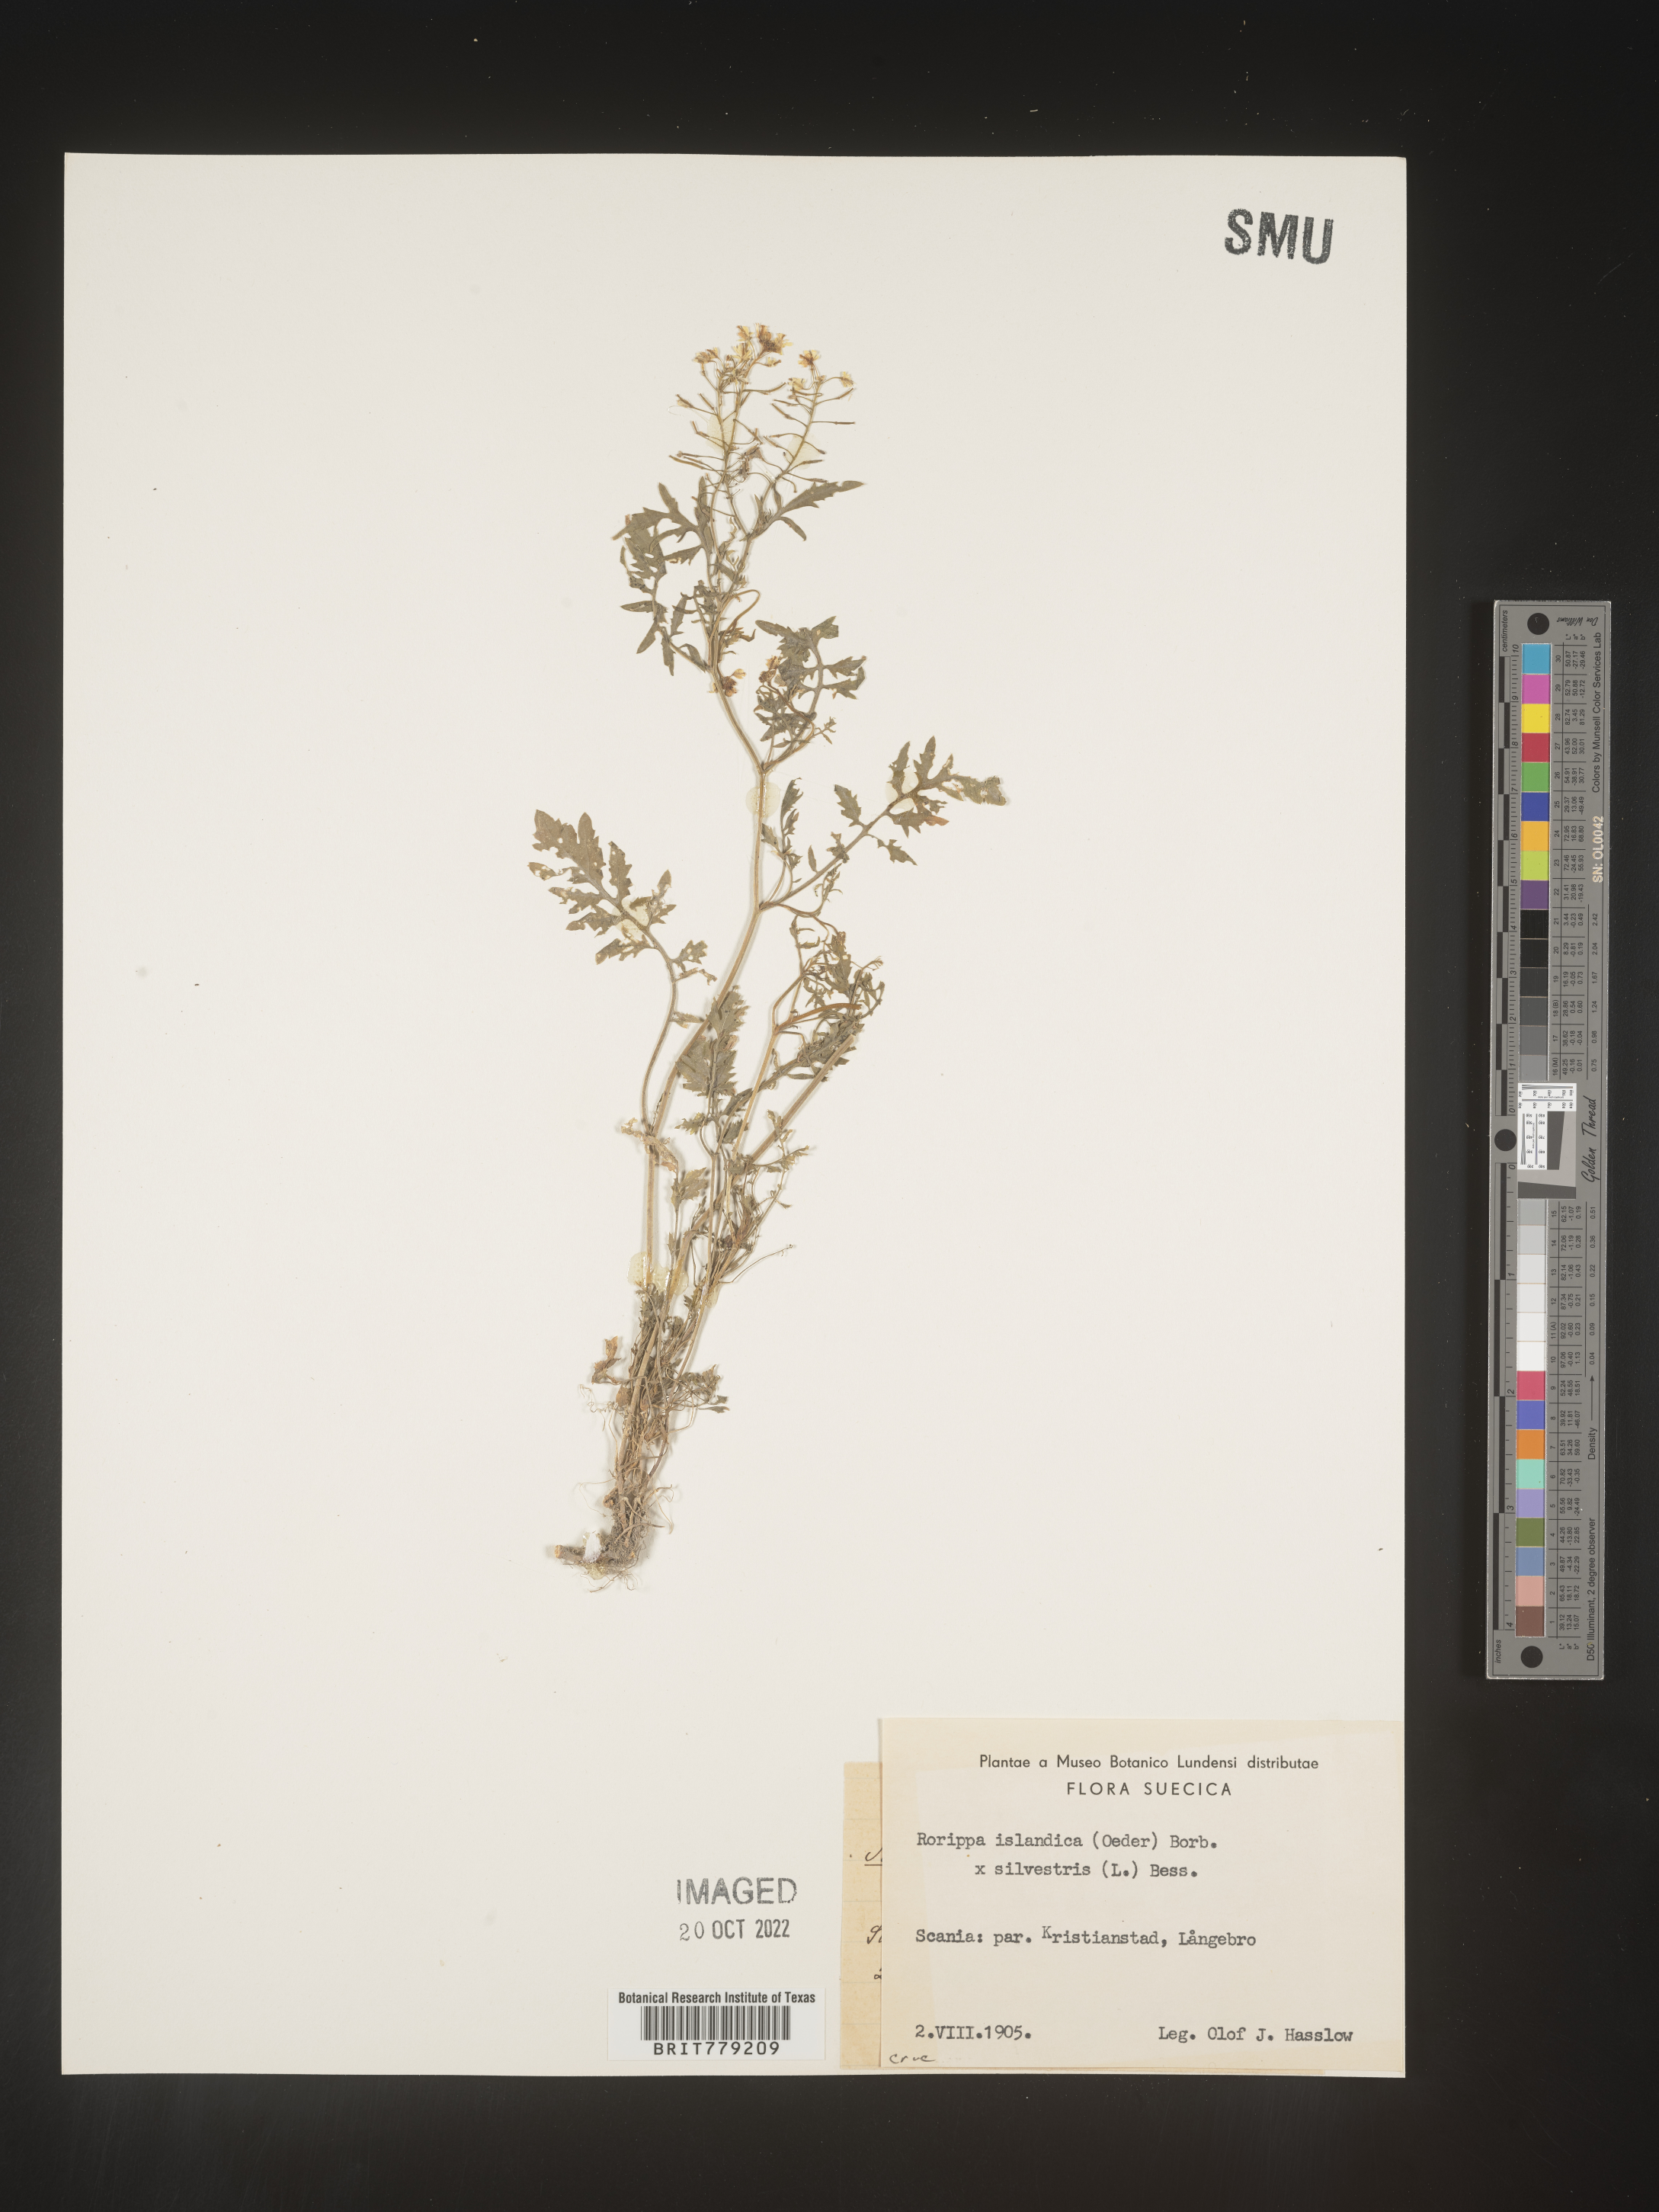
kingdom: Plantae
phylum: Tracheophyta
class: Magnoliopsida
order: Brassicales
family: Brassicaceae
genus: Rorippa
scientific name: Rorippa
